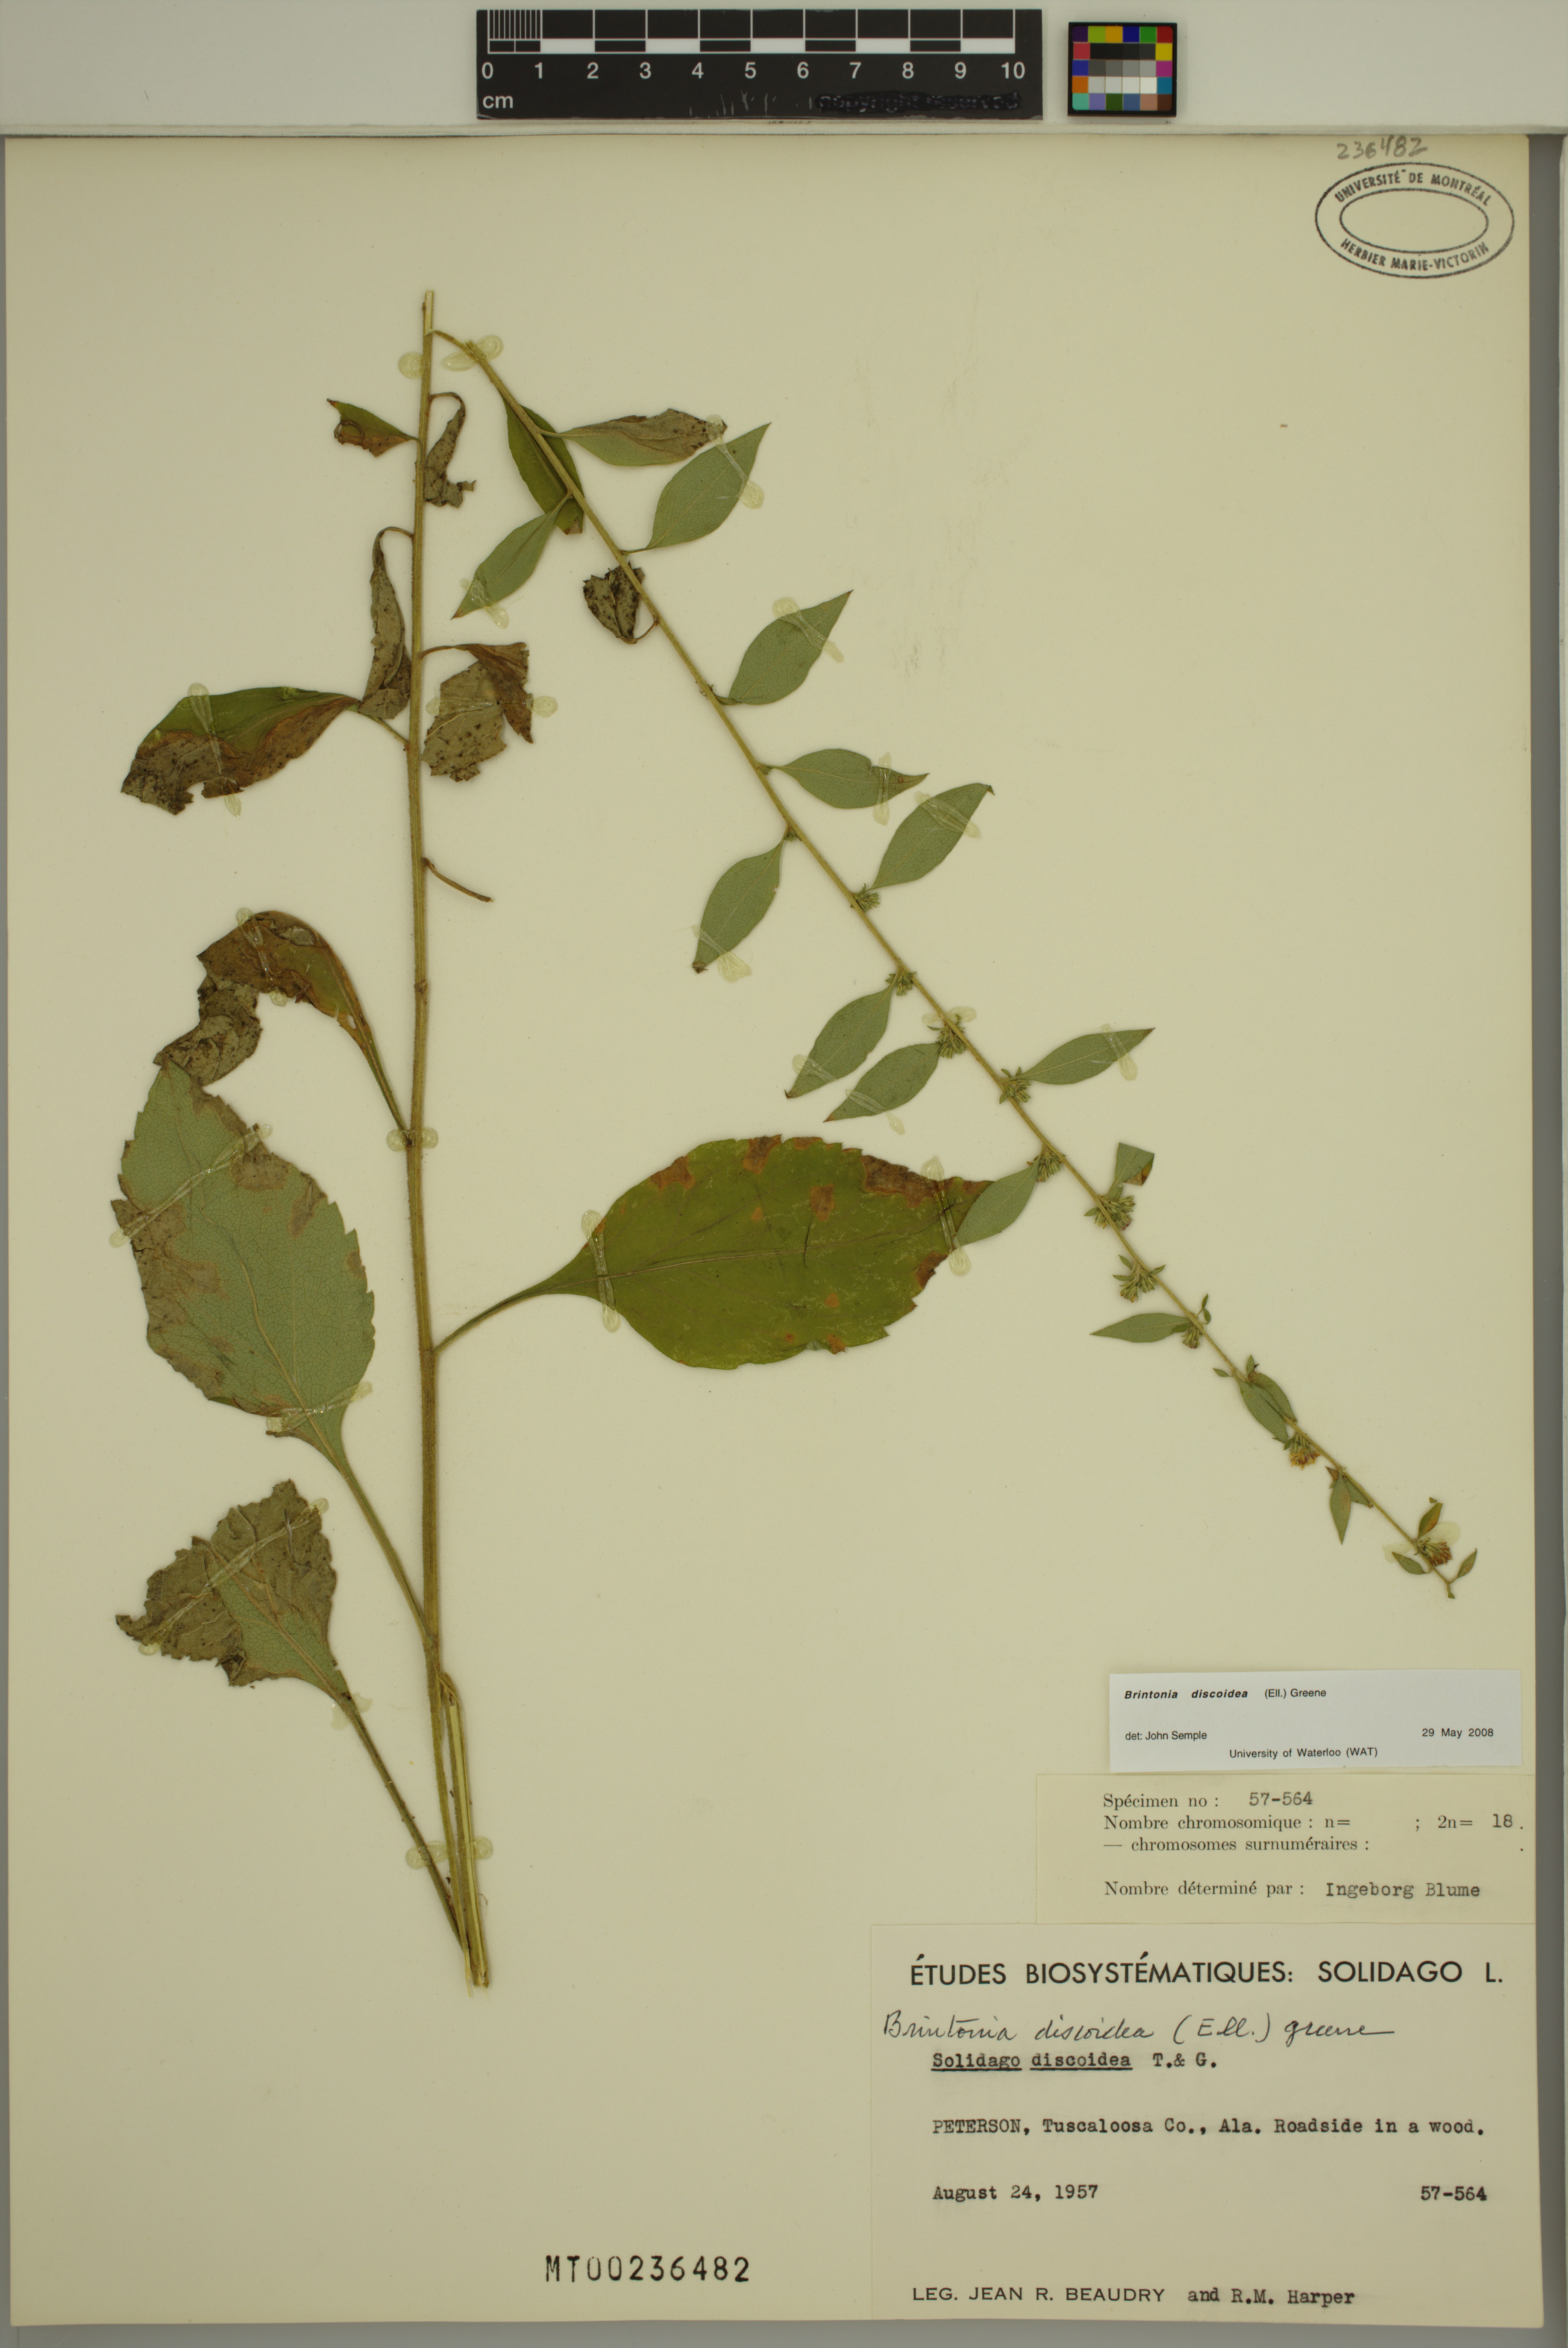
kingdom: Plantae
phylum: Tracheophyta
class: Magnoliopsida
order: Asterales
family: Asteraceae
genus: Solidago
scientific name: Solidago discoidea
